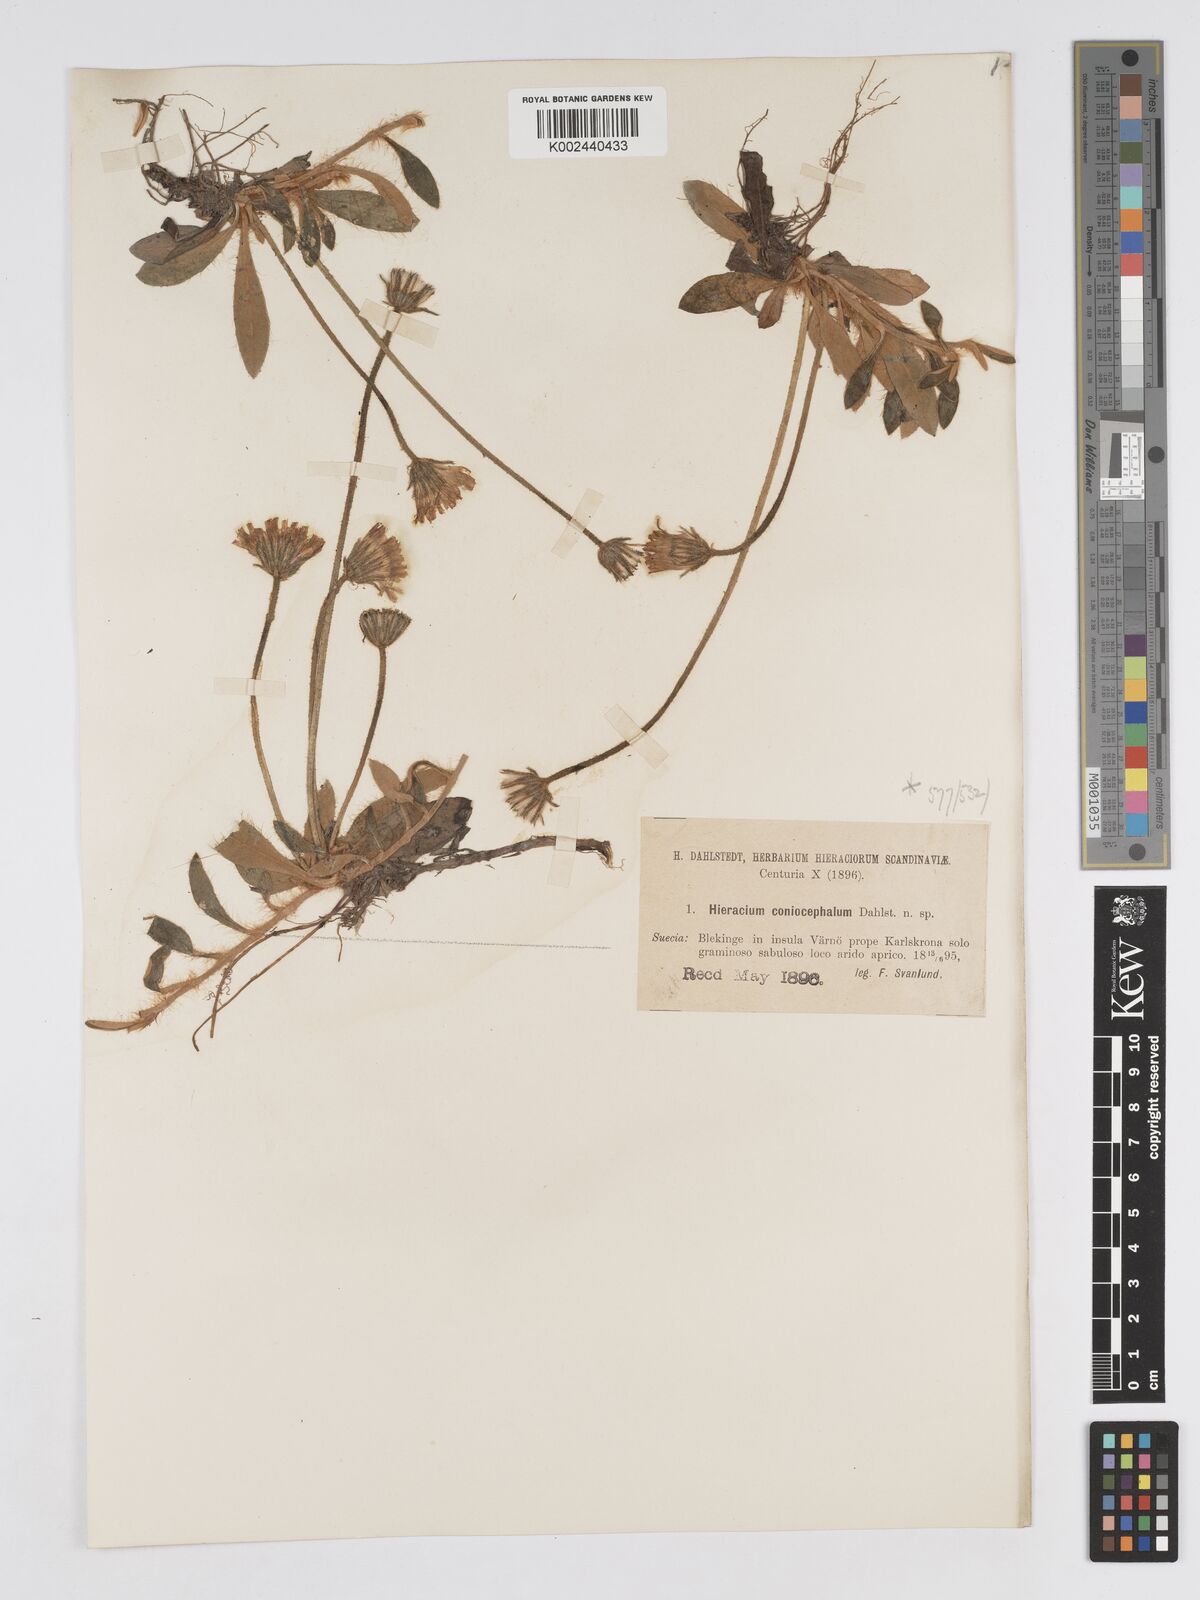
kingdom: Plantae
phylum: Tracheophyta
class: Magnoliopsida
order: Asterales
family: Asteraceae
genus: Hieracium
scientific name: Hieracium coniocephalum
